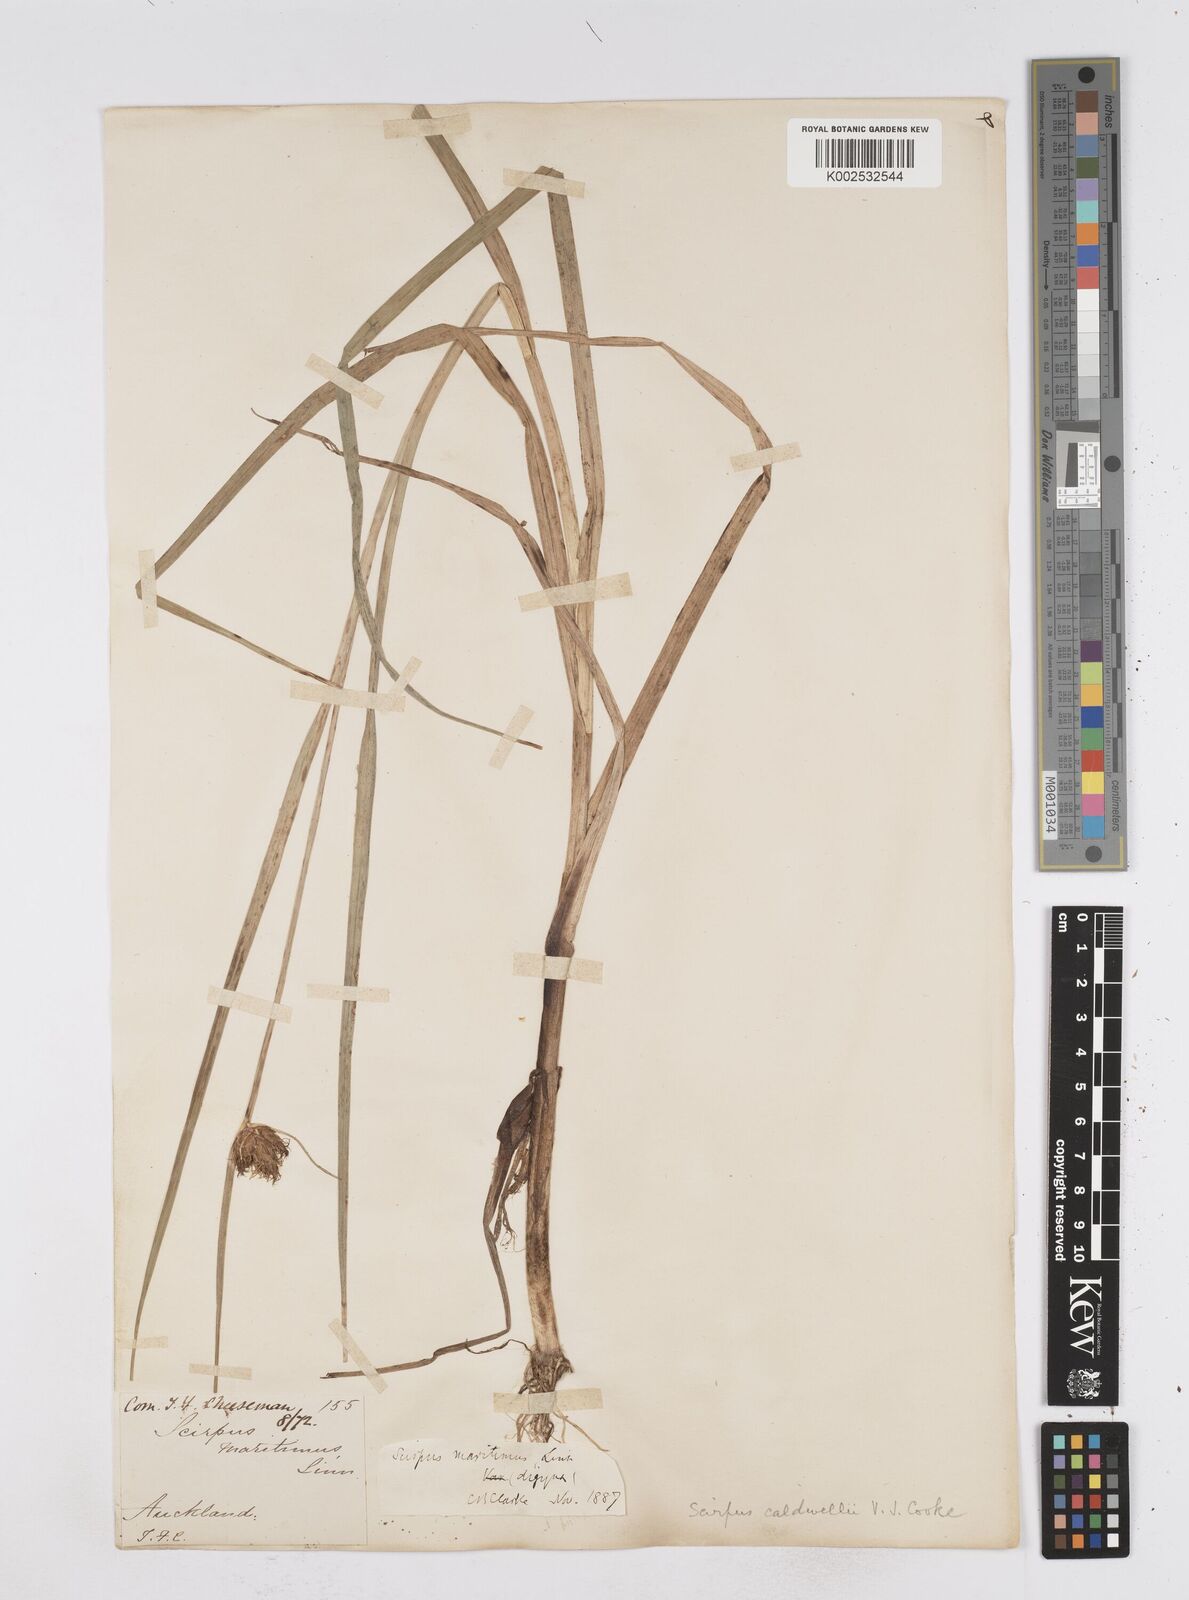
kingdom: Plantae
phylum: Tracheophyta
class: Liliopsida
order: Poales
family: Cyperaceae
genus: Bolboschoenus
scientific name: Bolboschoenus caldwellii
